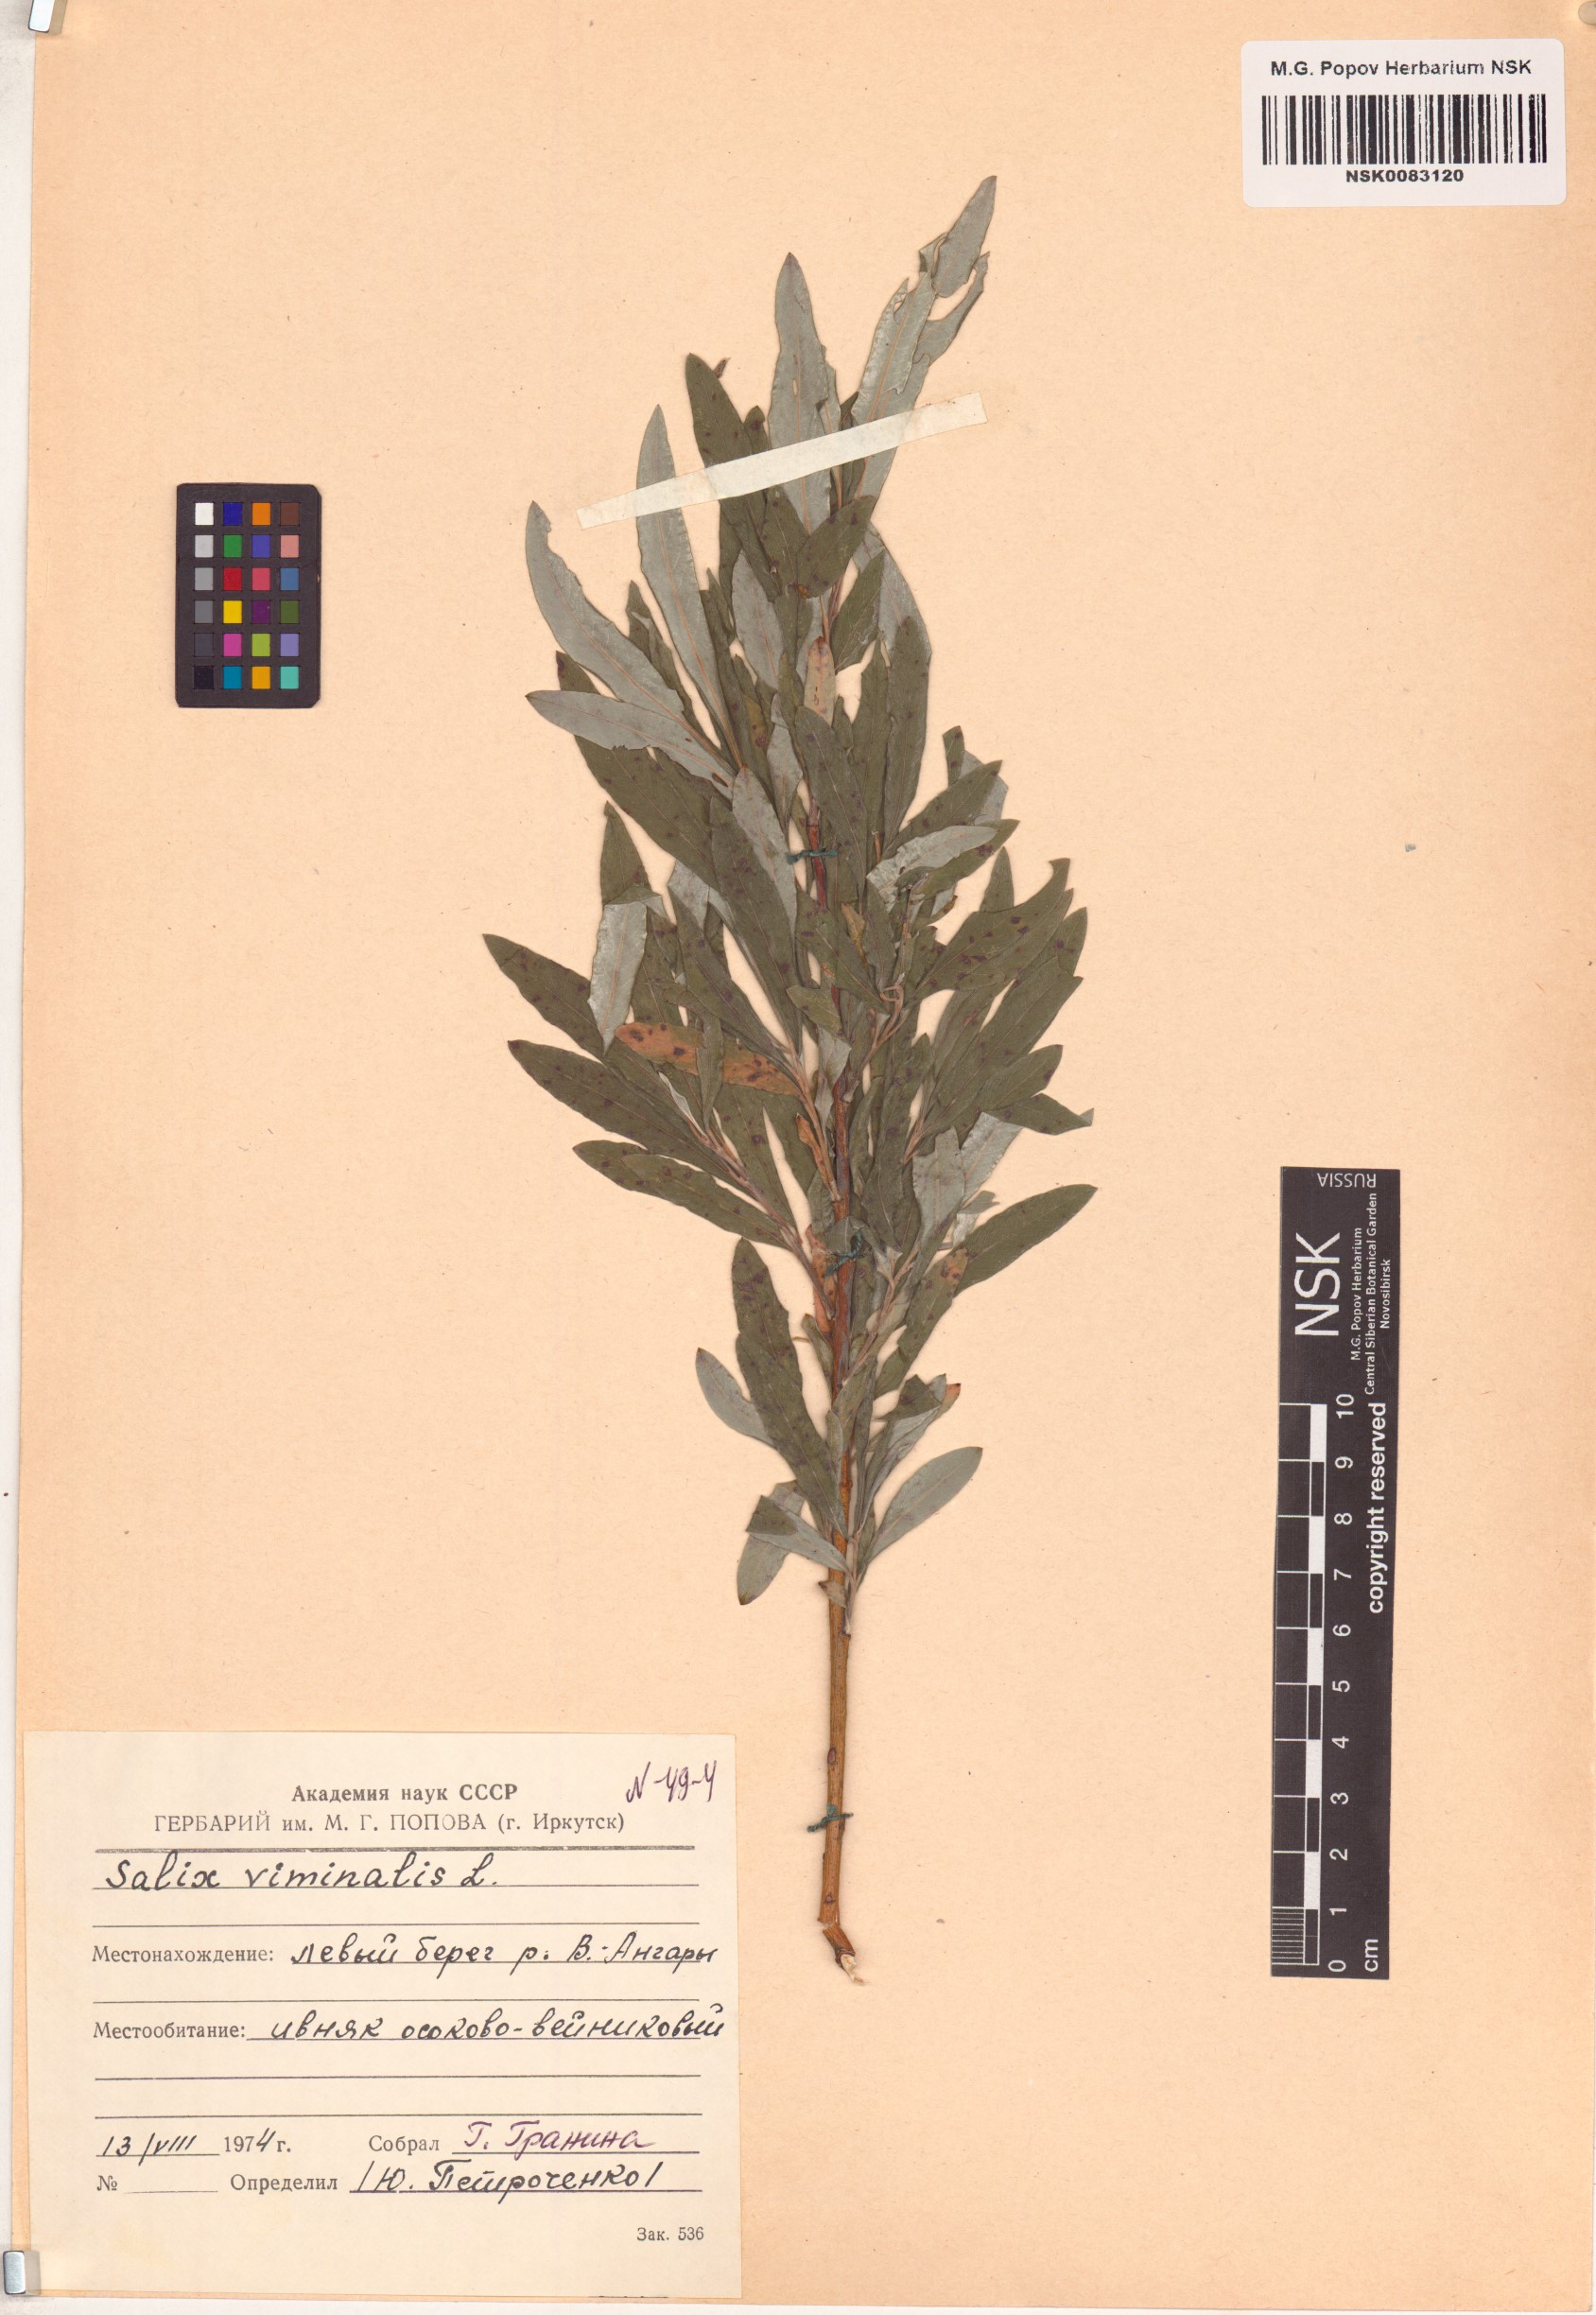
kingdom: Plantae
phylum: Tracheophyta
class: Magnoliopsida
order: Malpighiales
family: Salicaceae
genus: Salix
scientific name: Salix viminalis
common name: Osier
